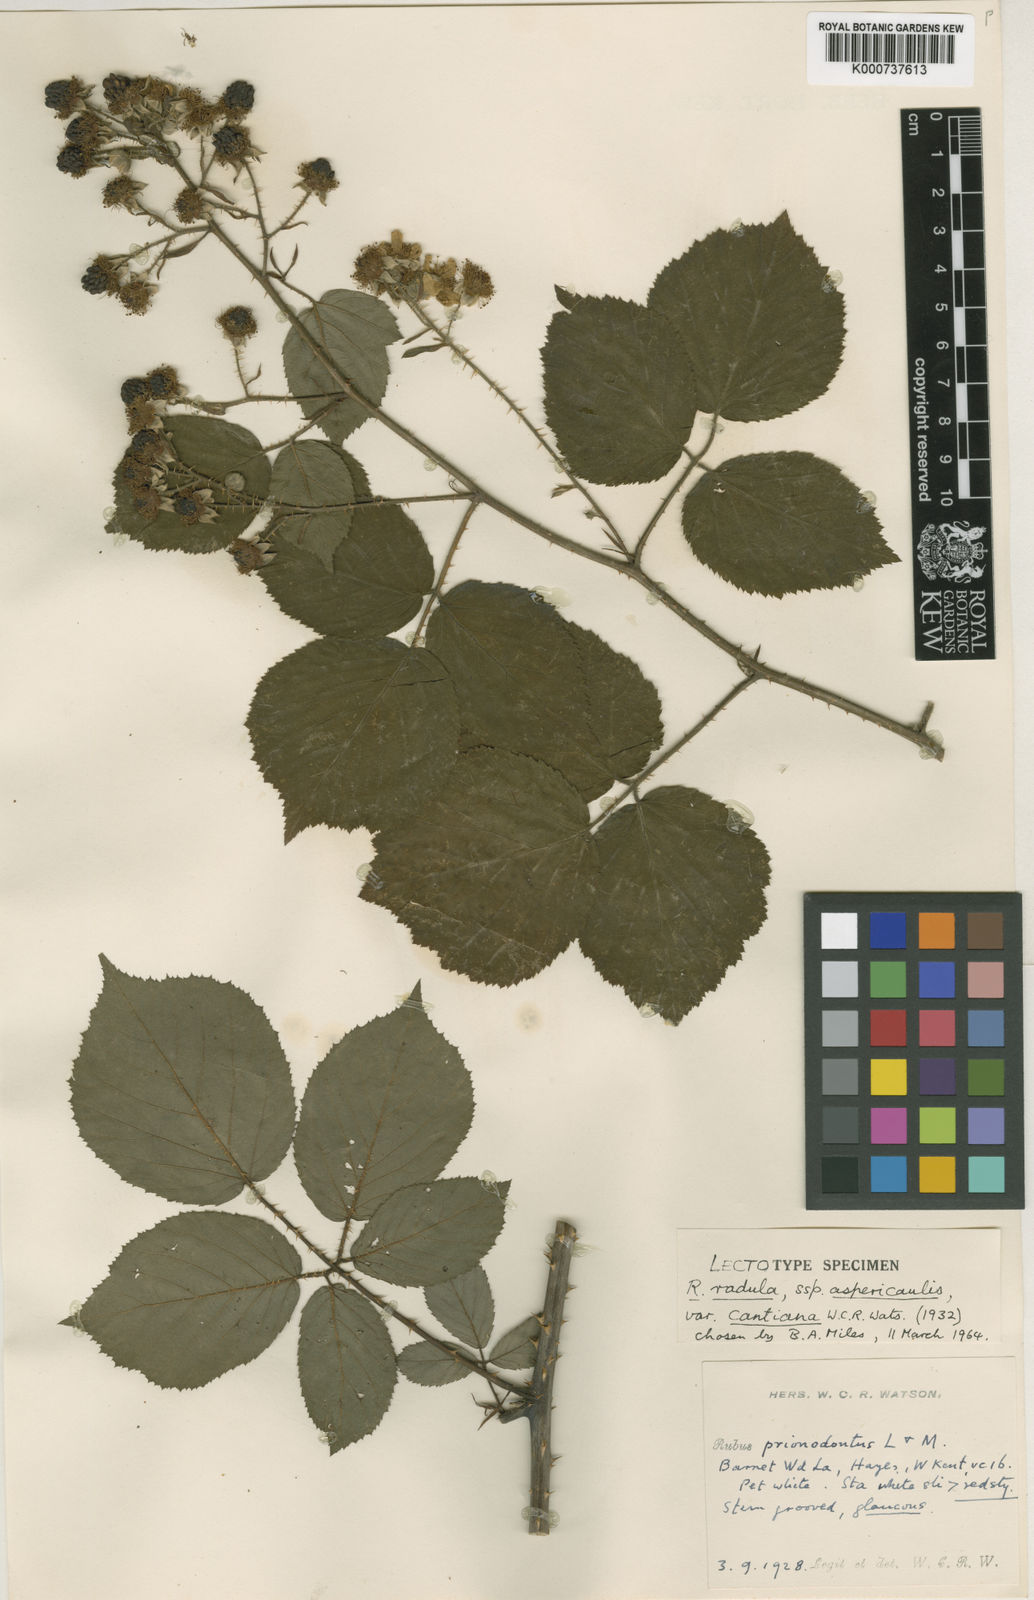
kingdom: Plantae
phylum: Tracheophyta
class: Magnoliopsida
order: Rosales
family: Rosaceae
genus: Rubus
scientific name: Rubus radula
